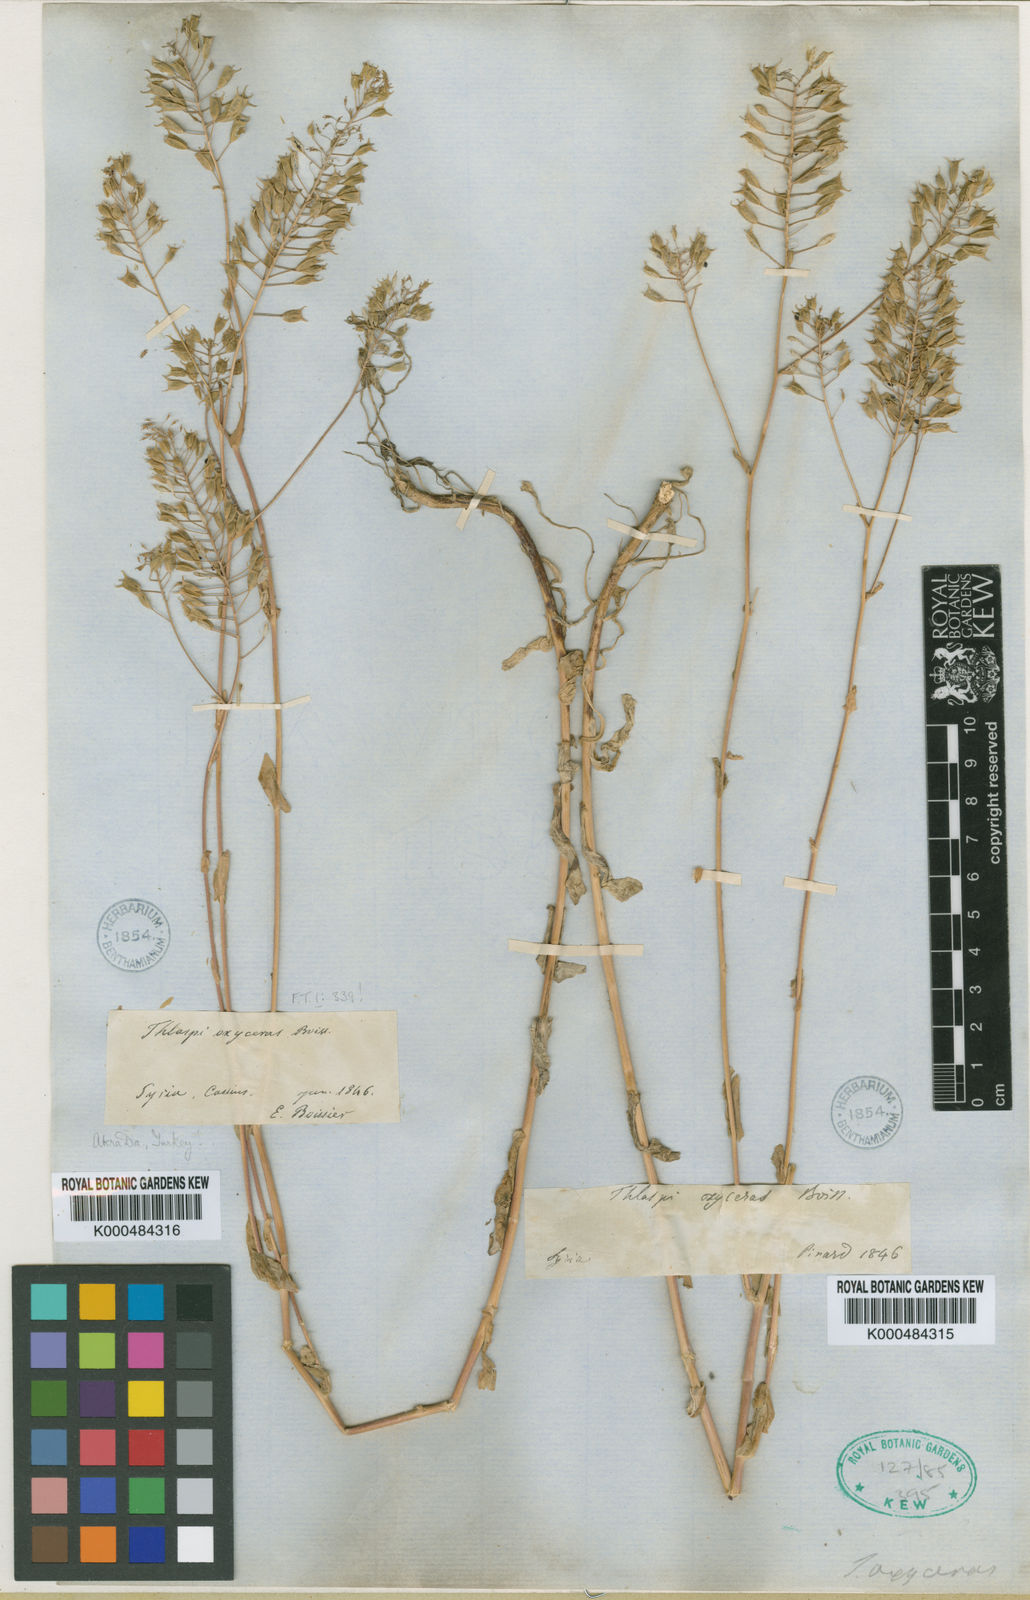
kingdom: Plantae
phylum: Tracheophyta
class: Magnoliopsida
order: Brassicales
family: Brassicaceae
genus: Thlaspi
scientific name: Thlaspi
